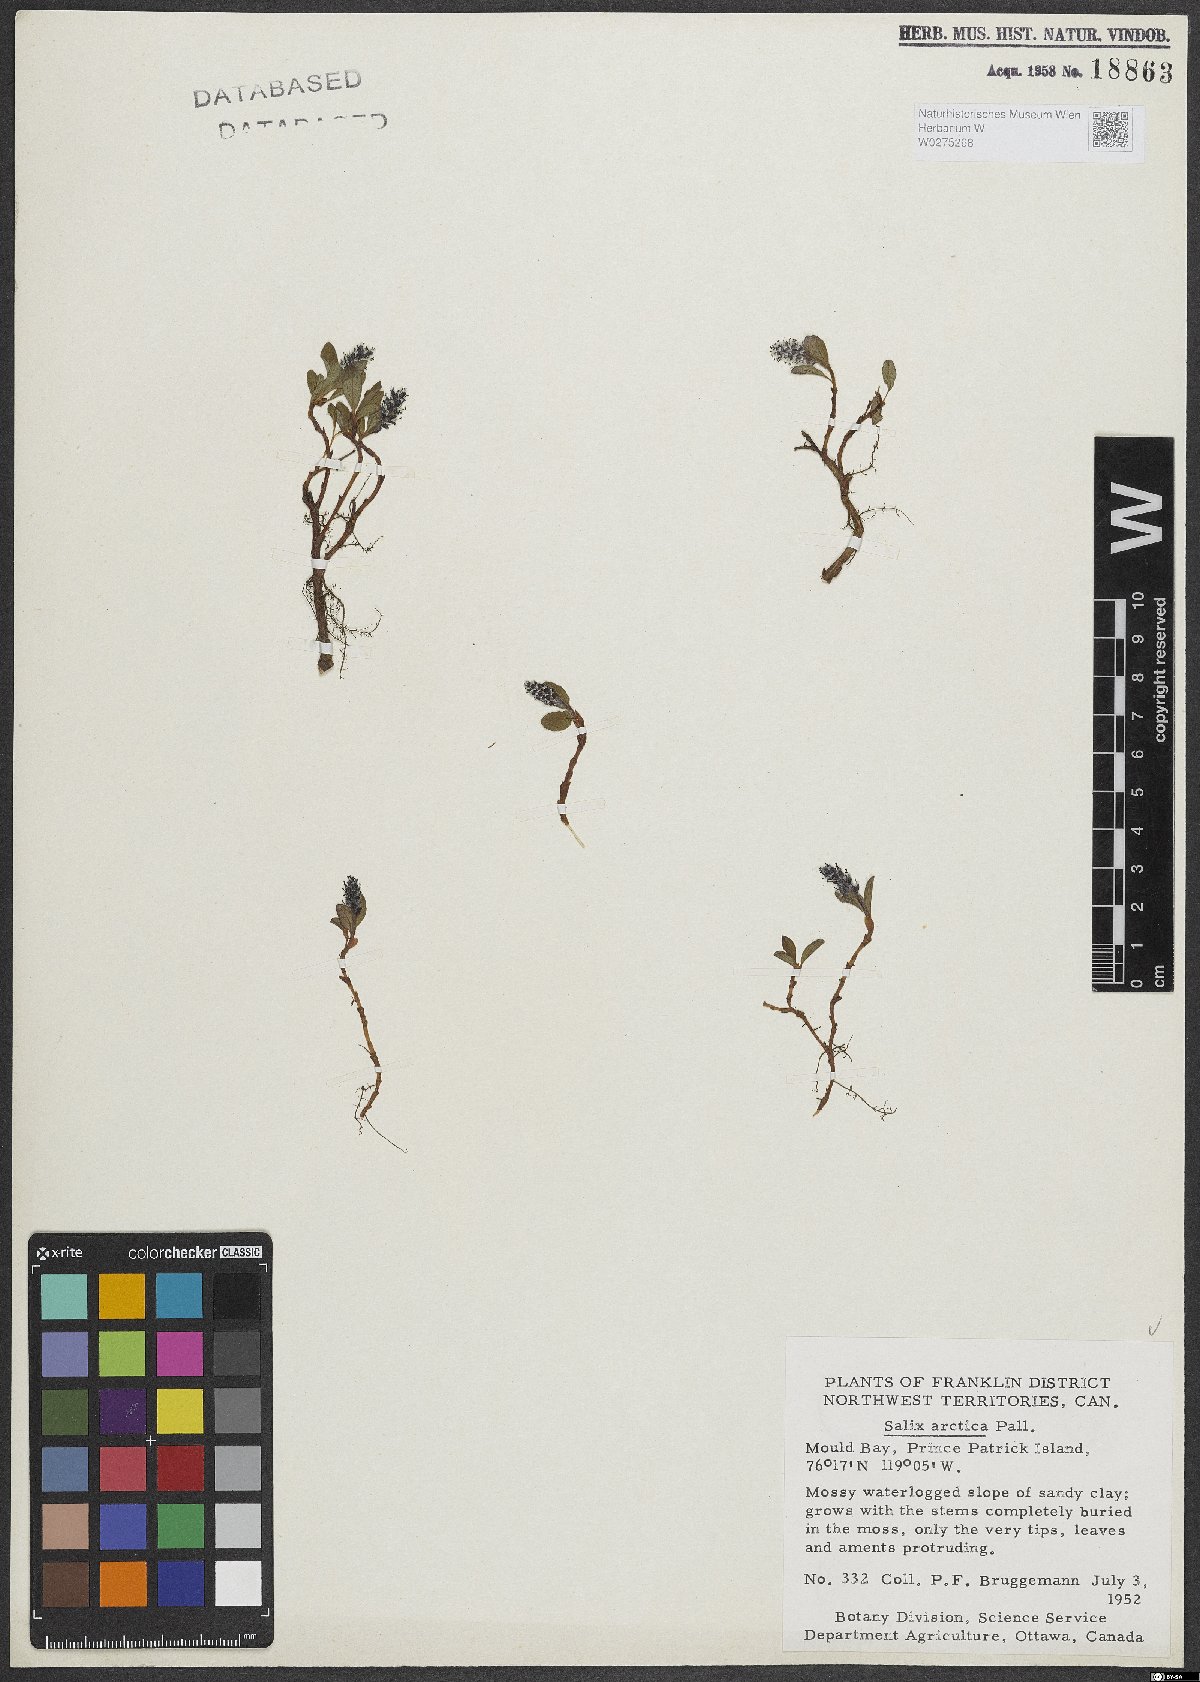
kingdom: Plantae
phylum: Tracheophyta
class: Magnoliopsida
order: Malpighiales
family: Salicaceae
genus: Salix
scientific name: Salix arctica
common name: Arctic willow
